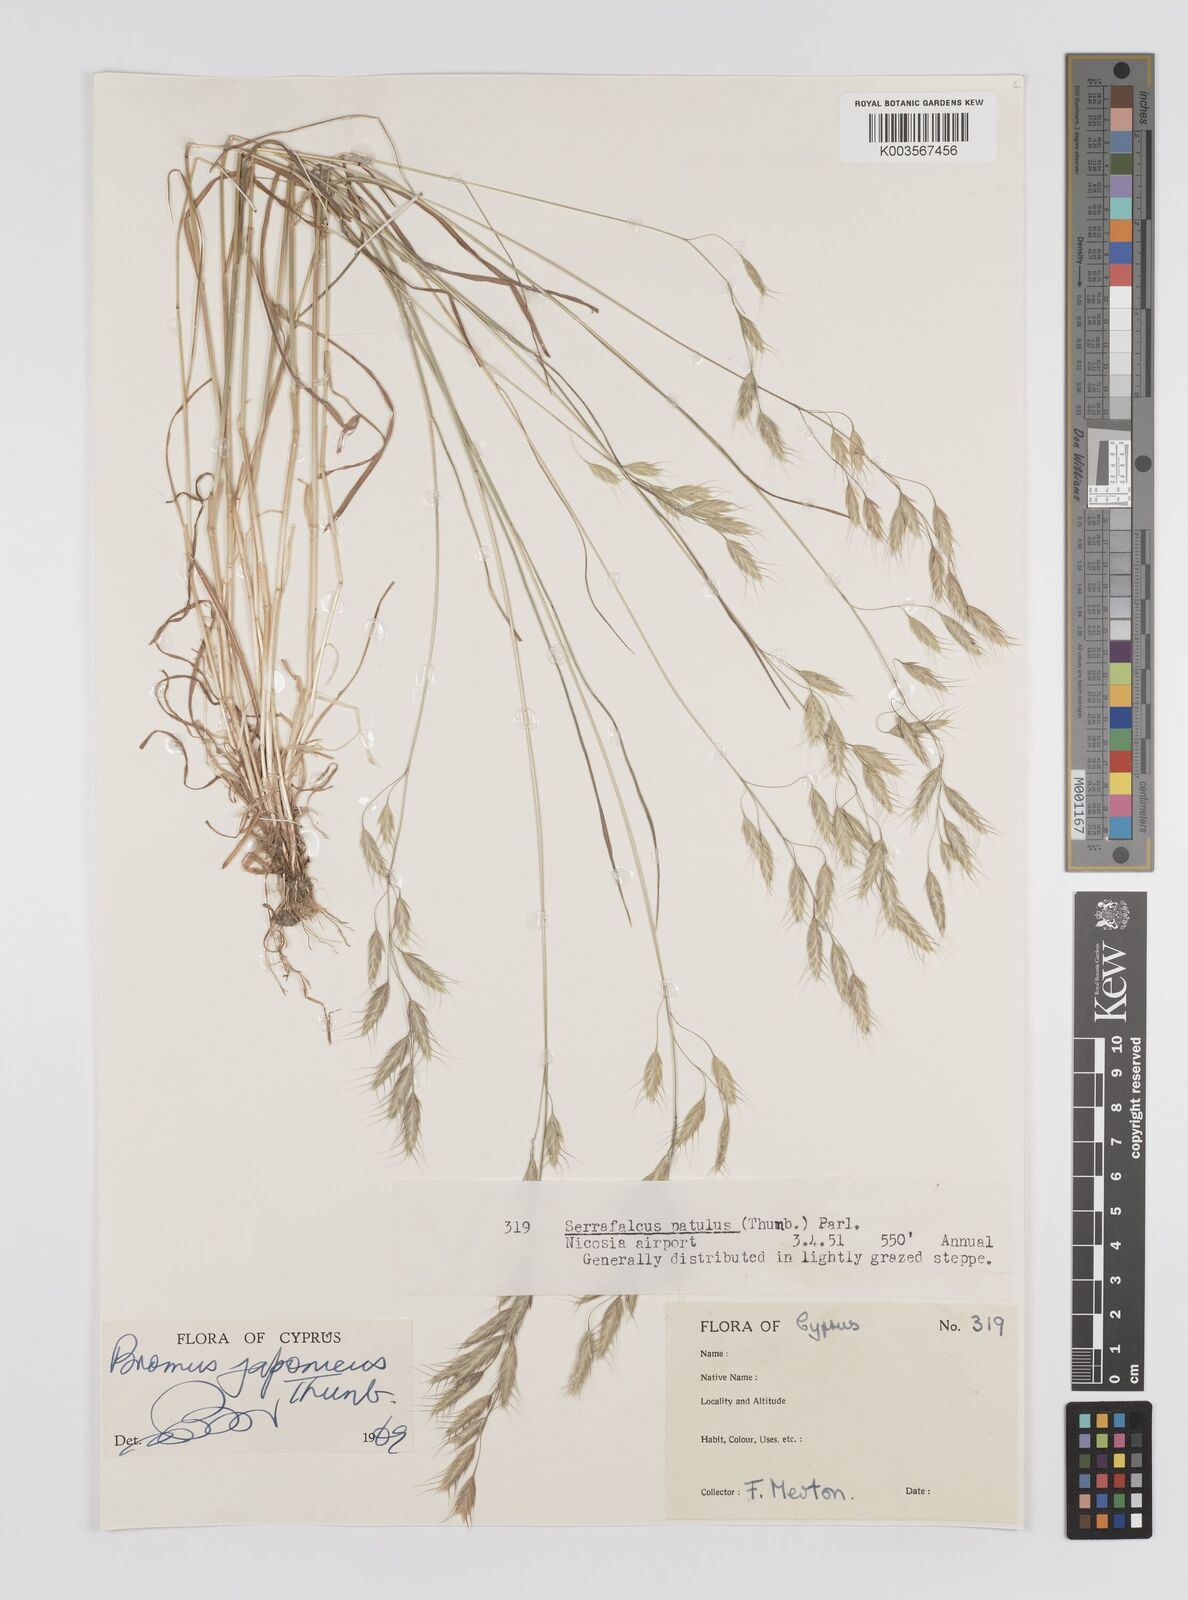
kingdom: Plantae
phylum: Tracheophyta
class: Liliopsida
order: Poales
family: Poaceae
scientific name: Poaceae
